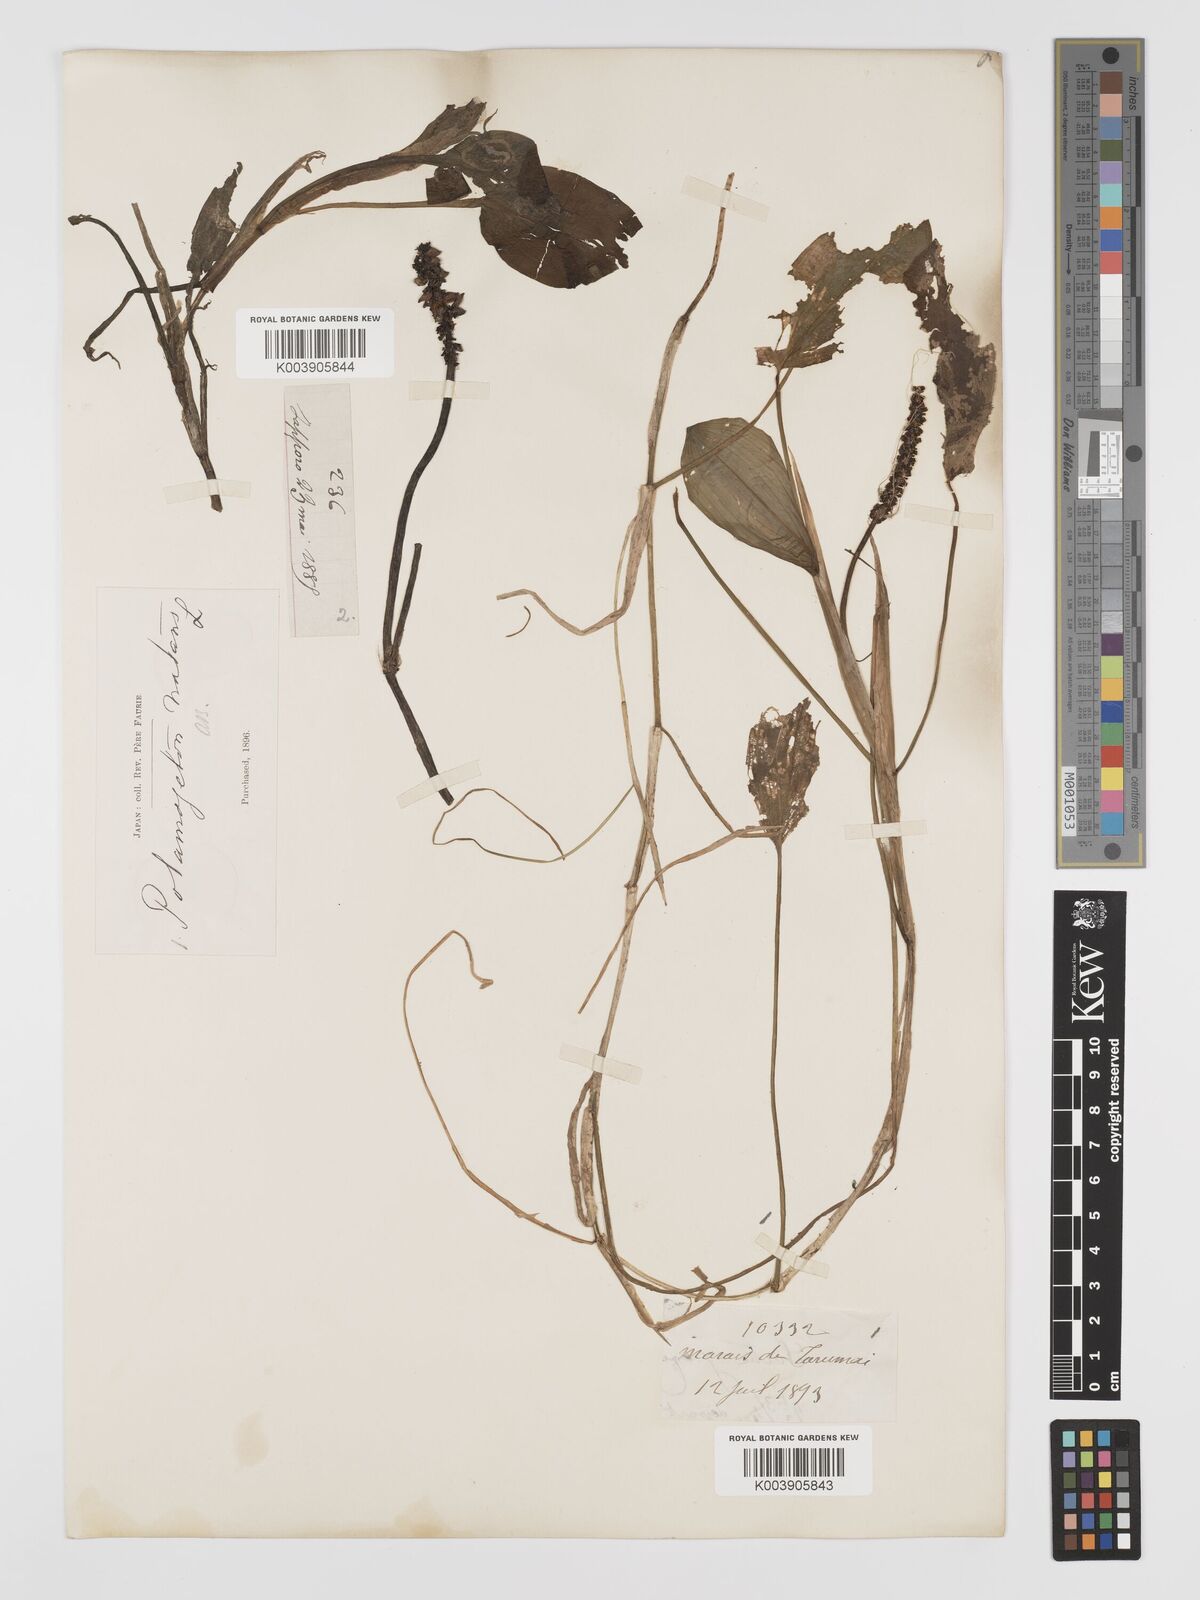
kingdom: Plantae
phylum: Tracheophyta
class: Liliopsida
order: Alismatales
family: Potamogetonaceae
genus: Potamogeton
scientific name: Potamogeton natans
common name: Broad-leaved pondweed
